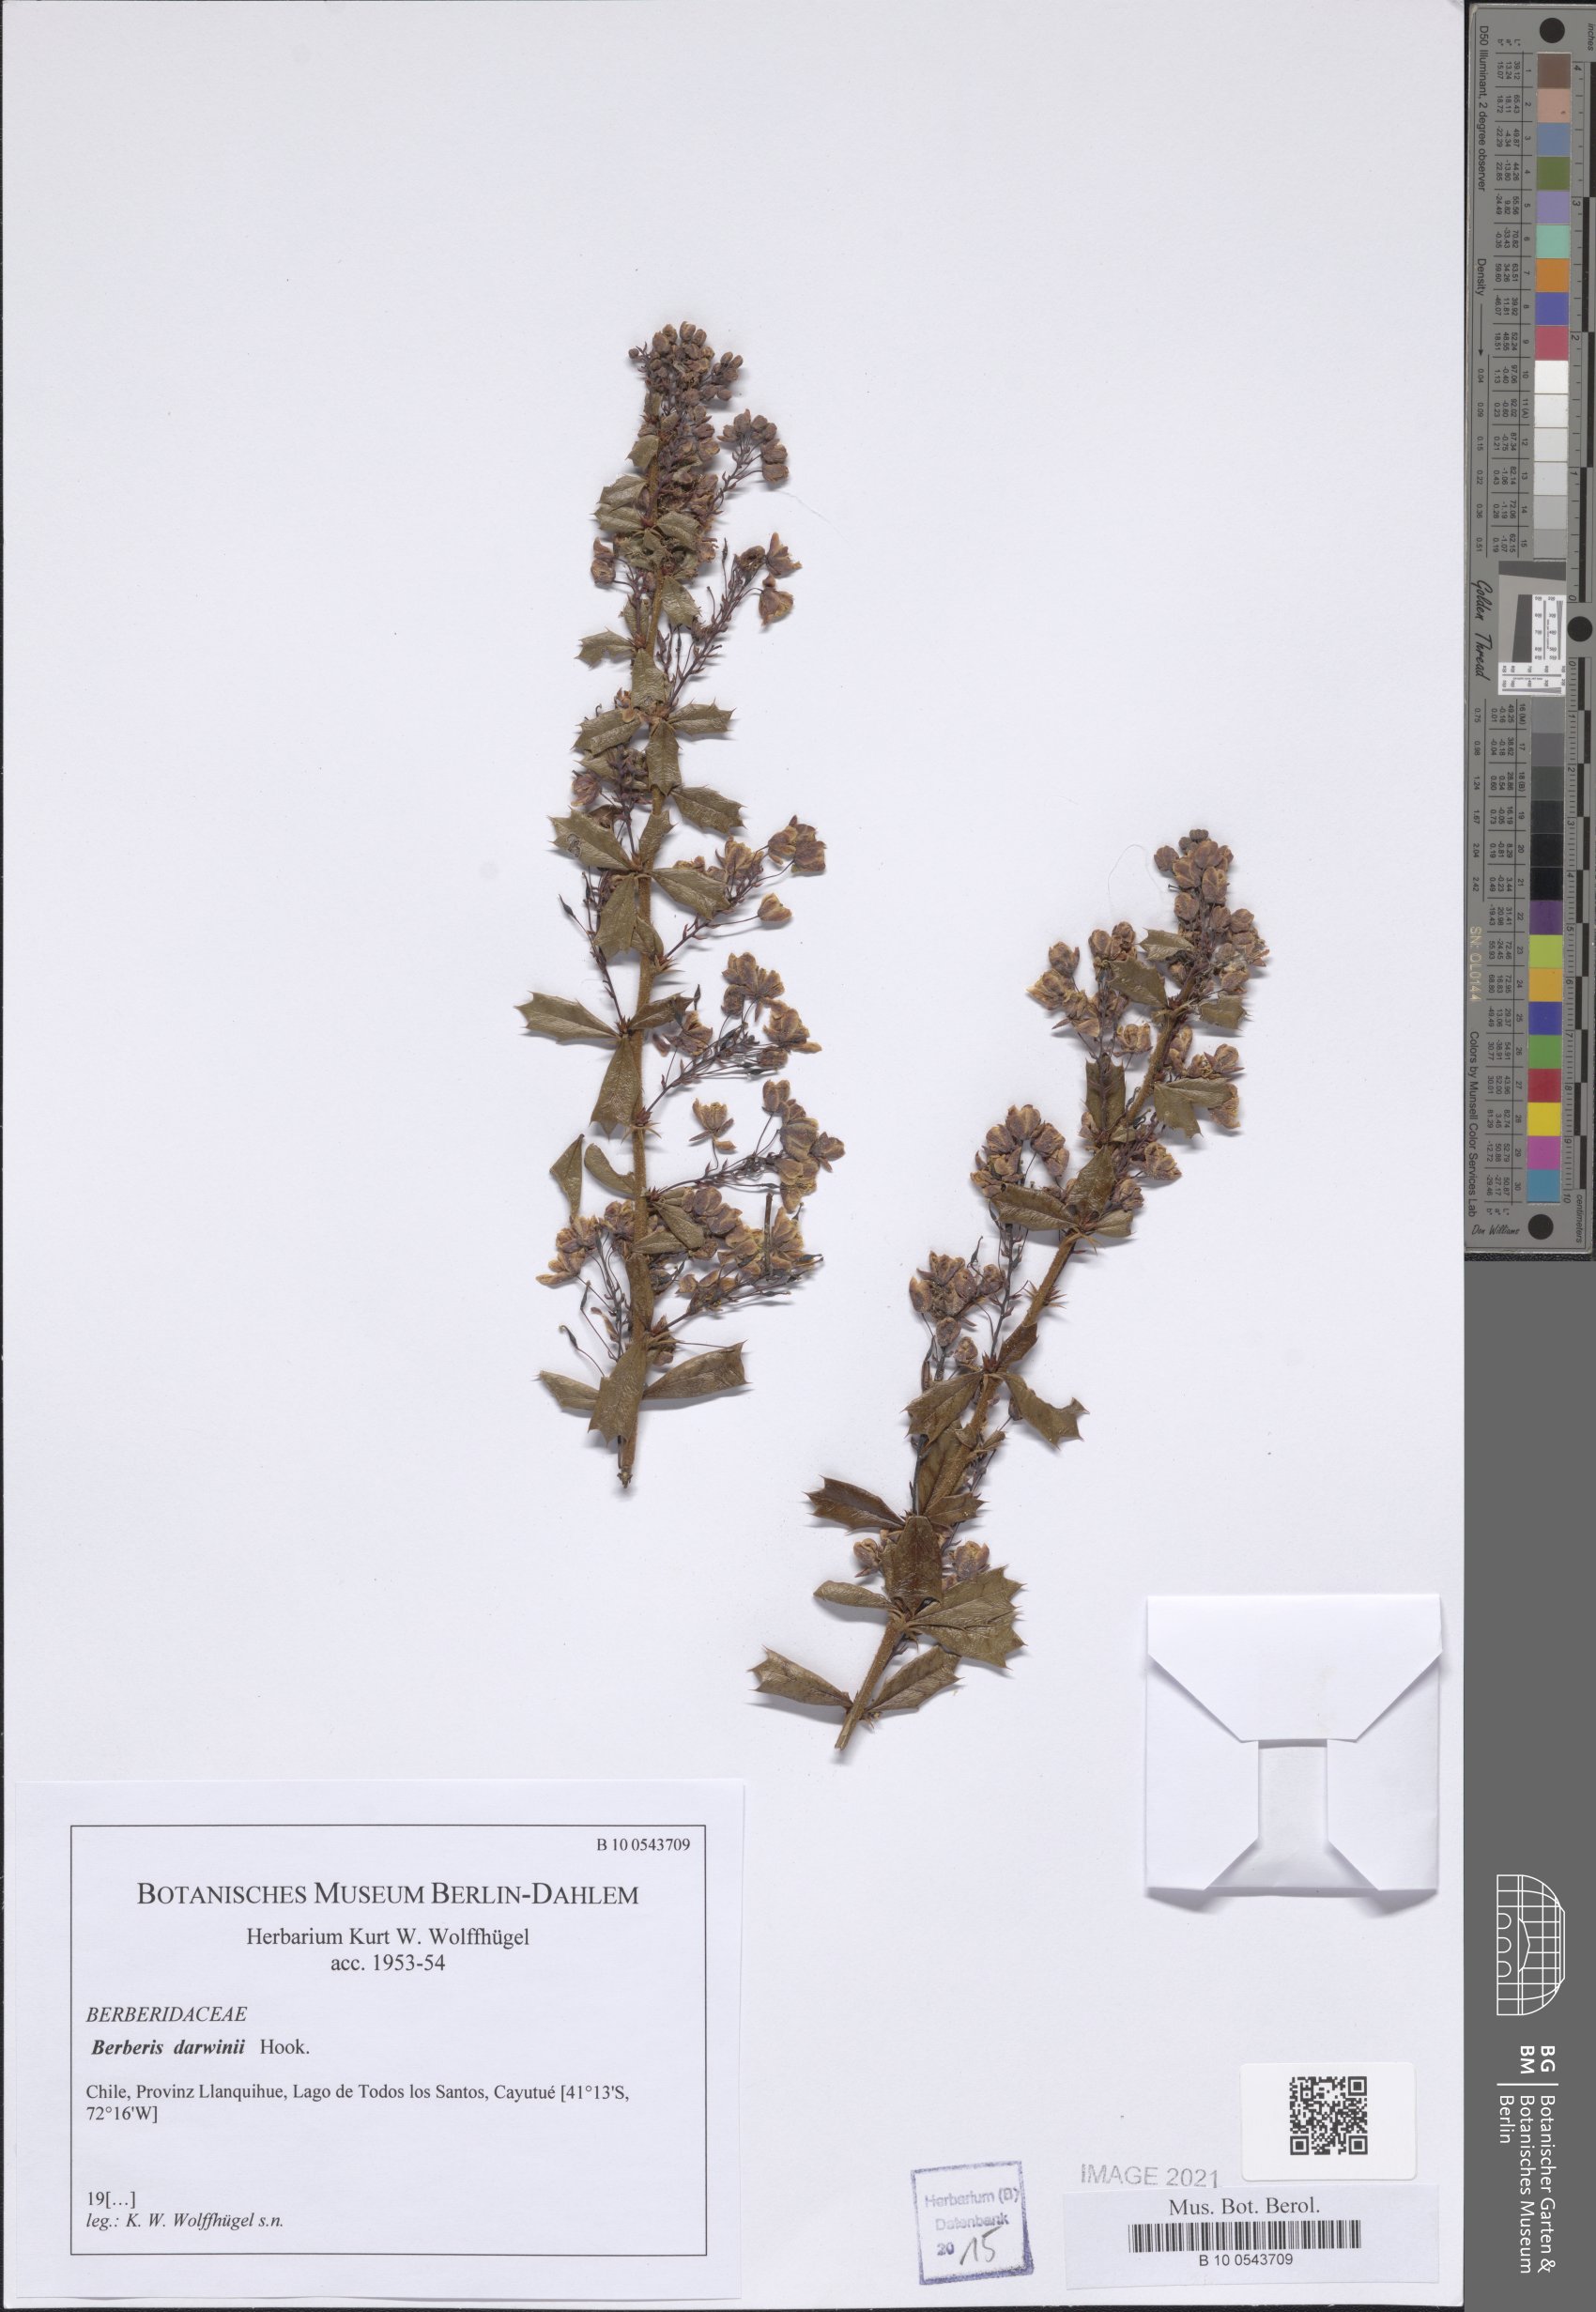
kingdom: Plantae
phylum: Tracheophyta
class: Magnoliopsida
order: Ranunculales
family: Berberidaceae
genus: Berberis
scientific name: Berberis darwinii
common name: Darwin's barberry
